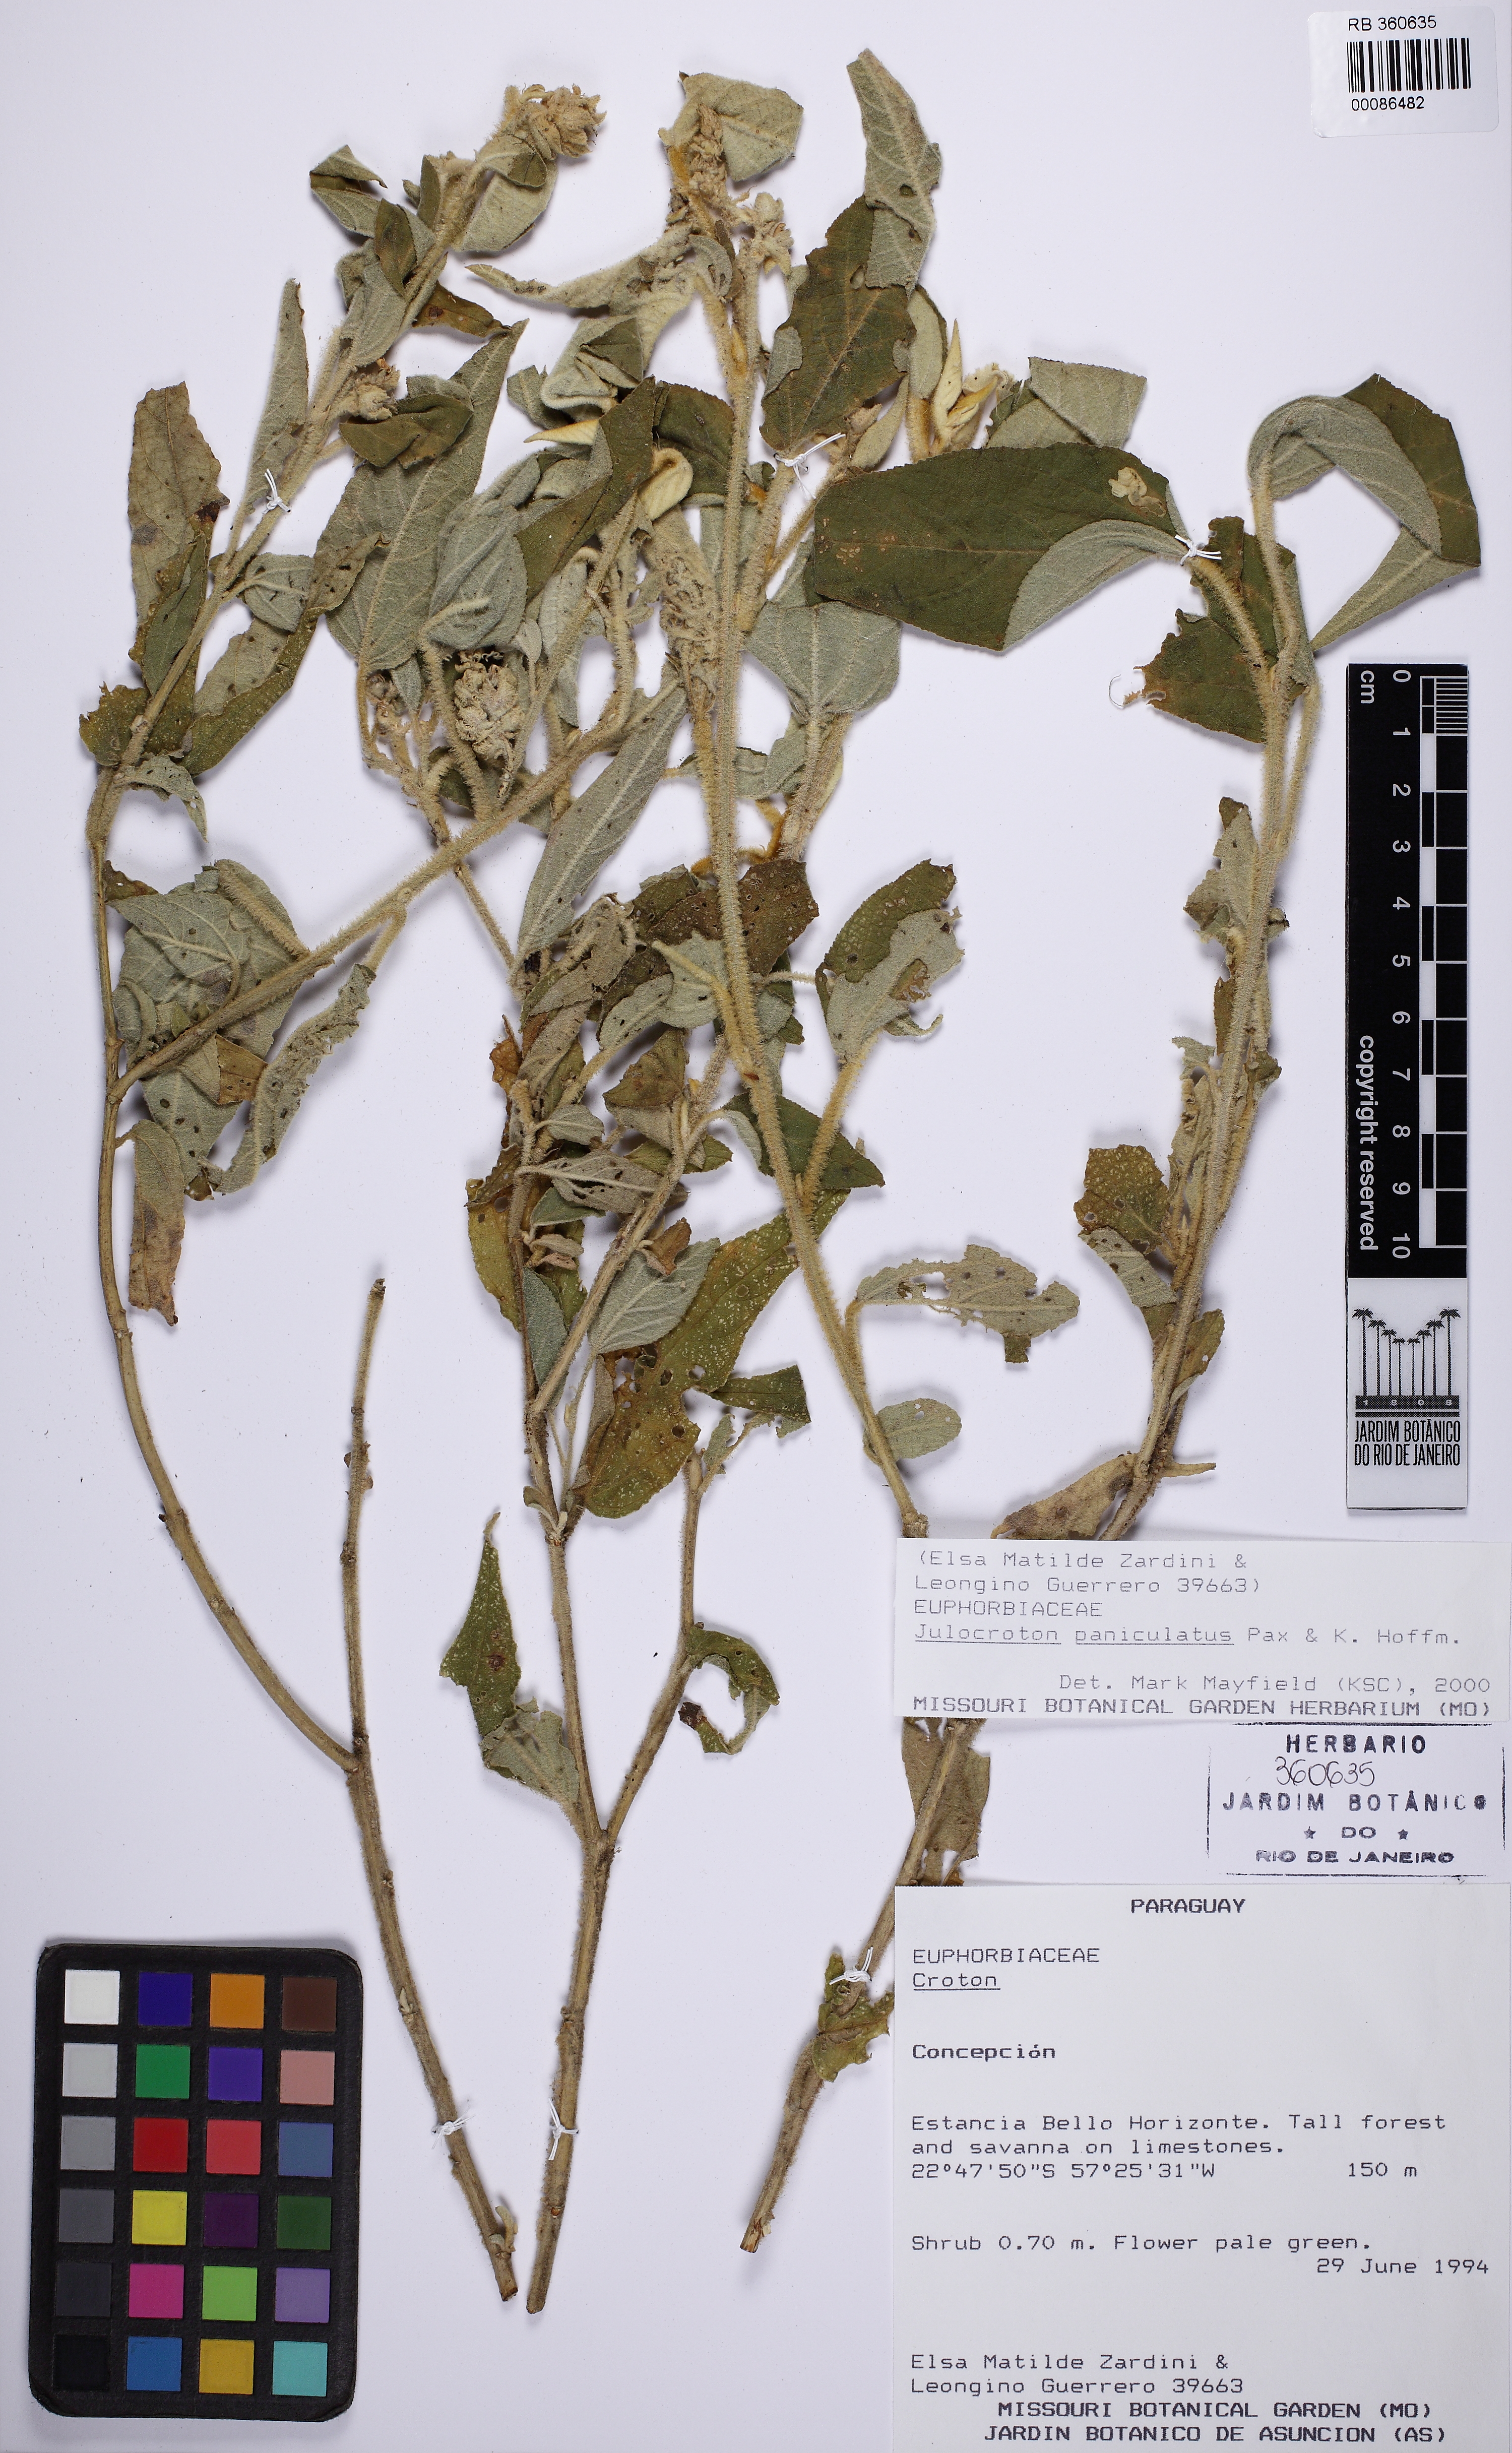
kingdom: Plantae
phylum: Tracheophyta
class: Magnoliopsida
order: Malpighiales
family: Euphorbiaceae
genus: Croton
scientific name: Croton fragrantulus
